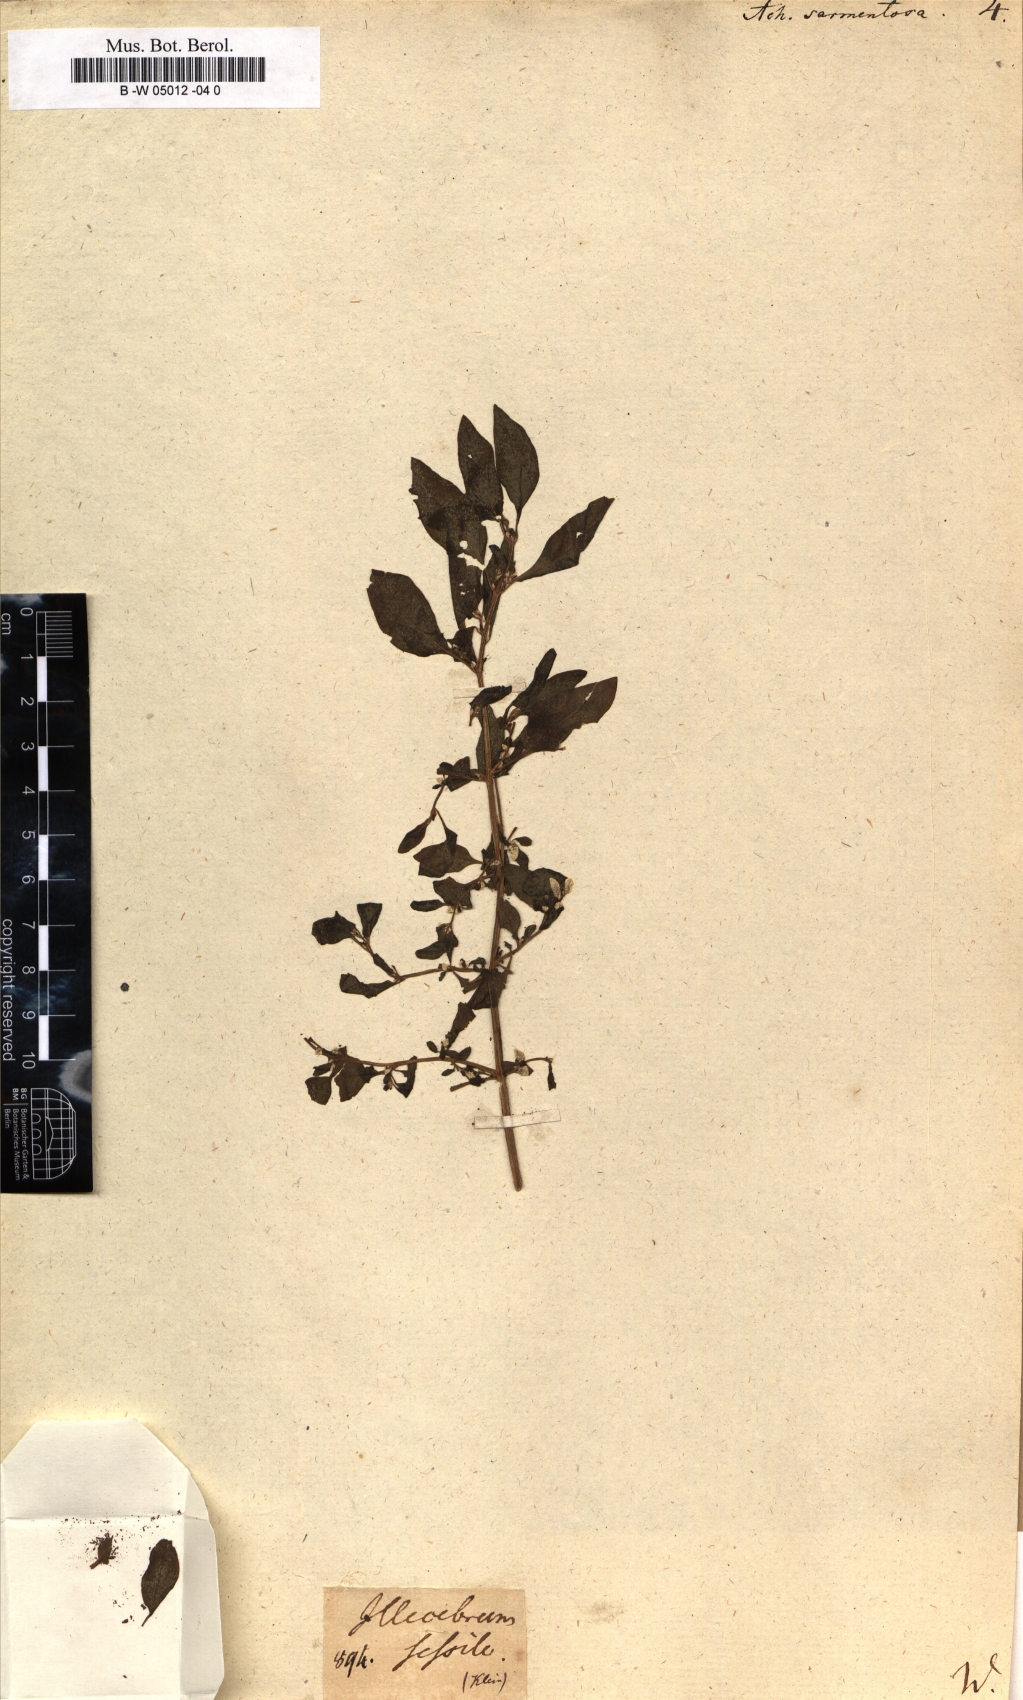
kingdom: Plantae
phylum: Tracheophyta
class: Magnoliopsida
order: Caryophyllales
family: Amaranthaceae
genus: Achyranthes
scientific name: Achyranthes sarmentosa
